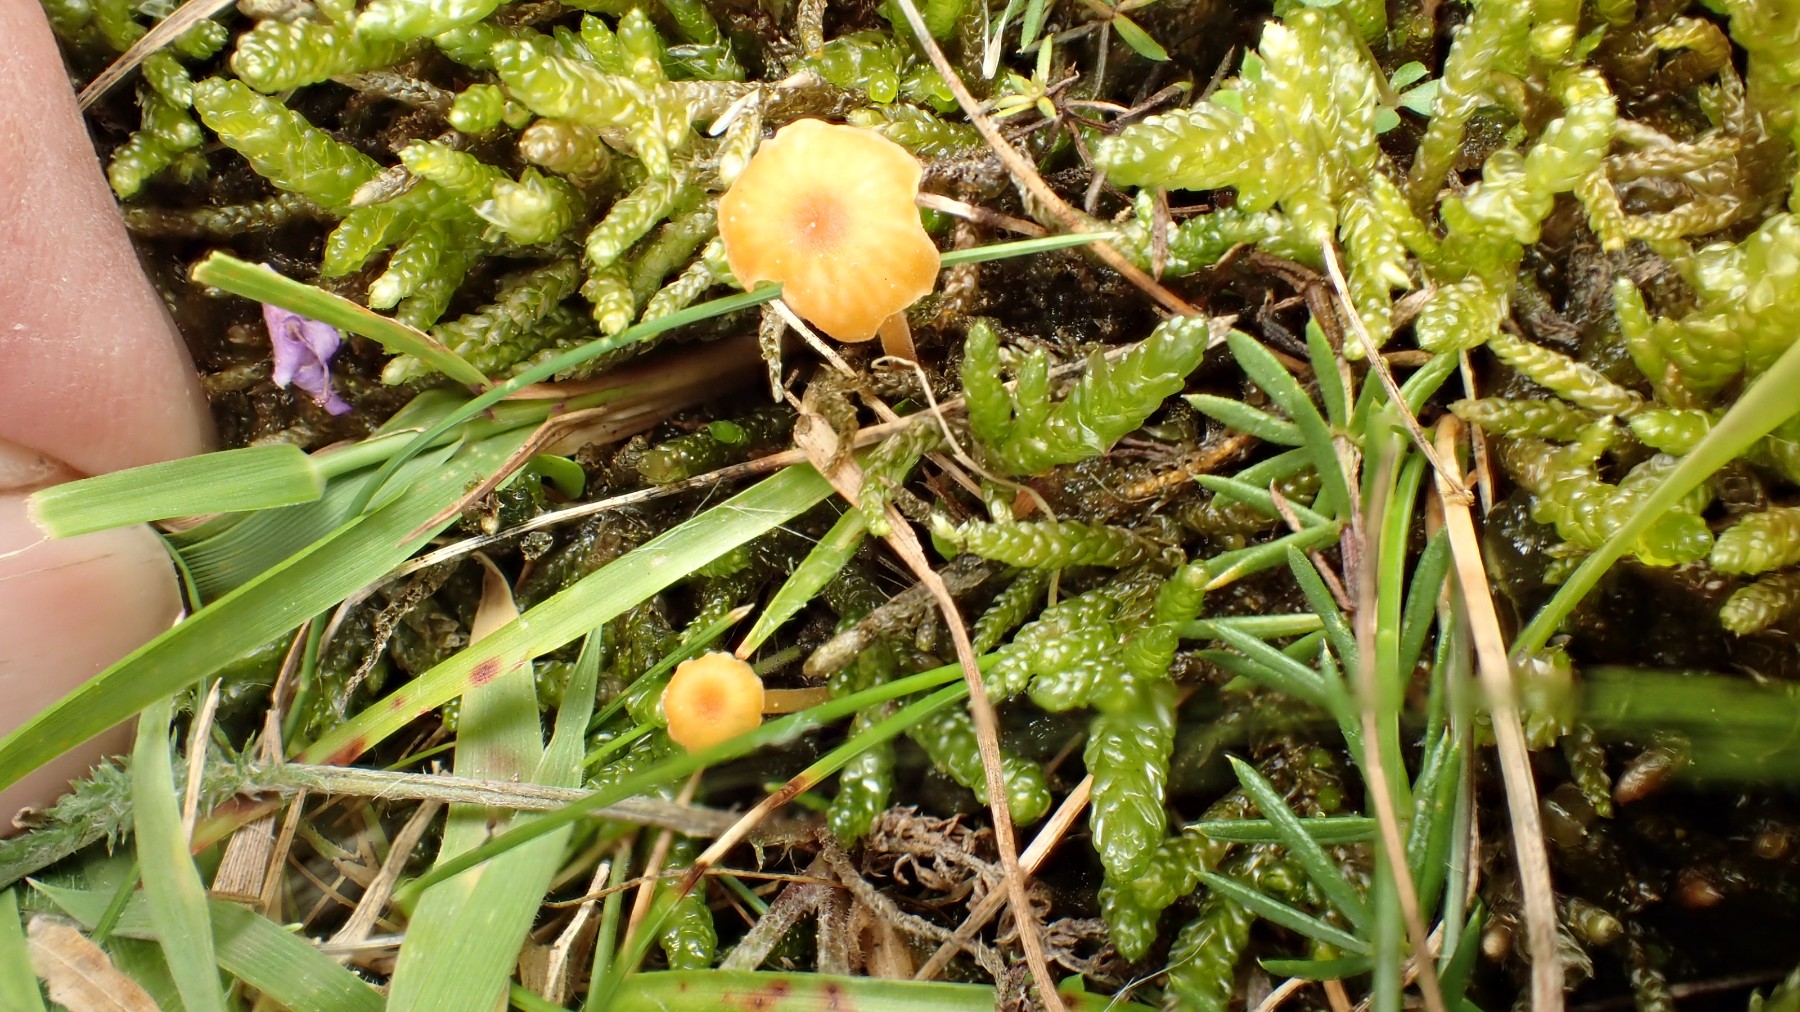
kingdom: Fungi
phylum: Basidiomycota
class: Agaricomycetes
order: Hymenochaetales
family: Rickenellaceae
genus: Rickenella
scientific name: Rickenella fibula
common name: orange mosnavlehat
